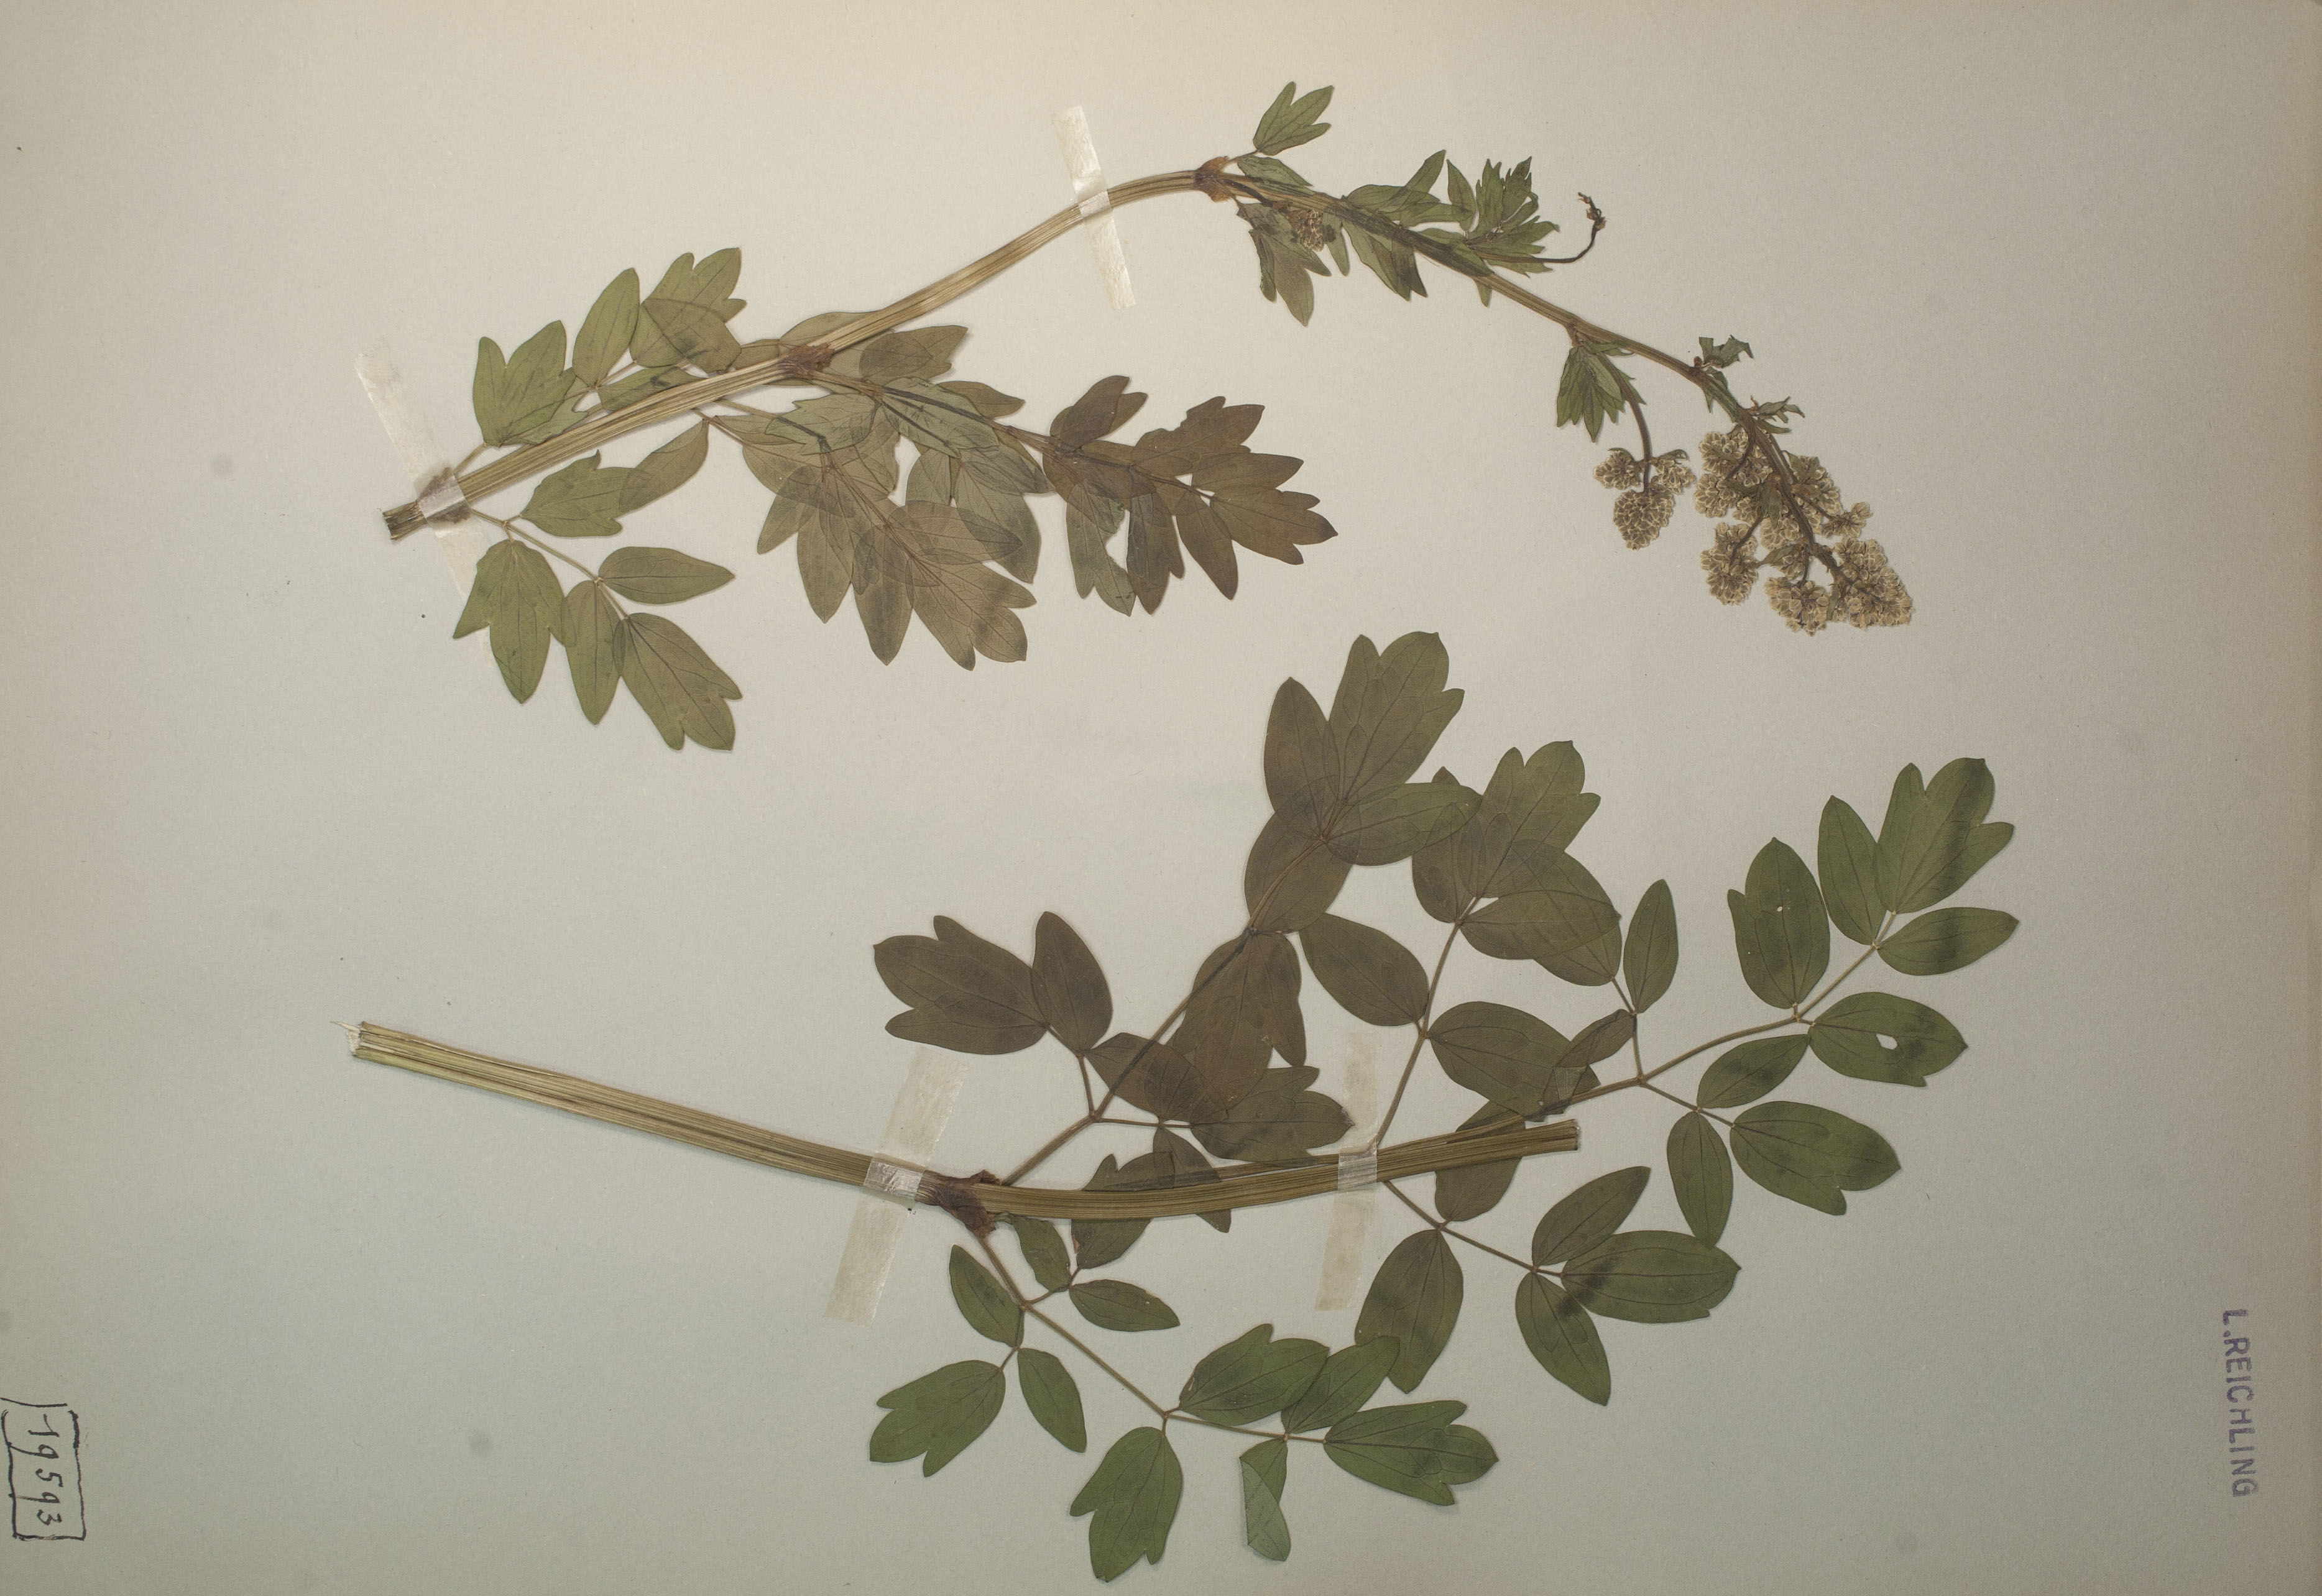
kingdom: Plantae
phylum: Tracheophyta
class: Magnoliopsida
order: Ranunculales
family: Ranunculaceae
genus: Thalictrum
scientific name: Thalictrum flavum
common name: Common meadow-rue
